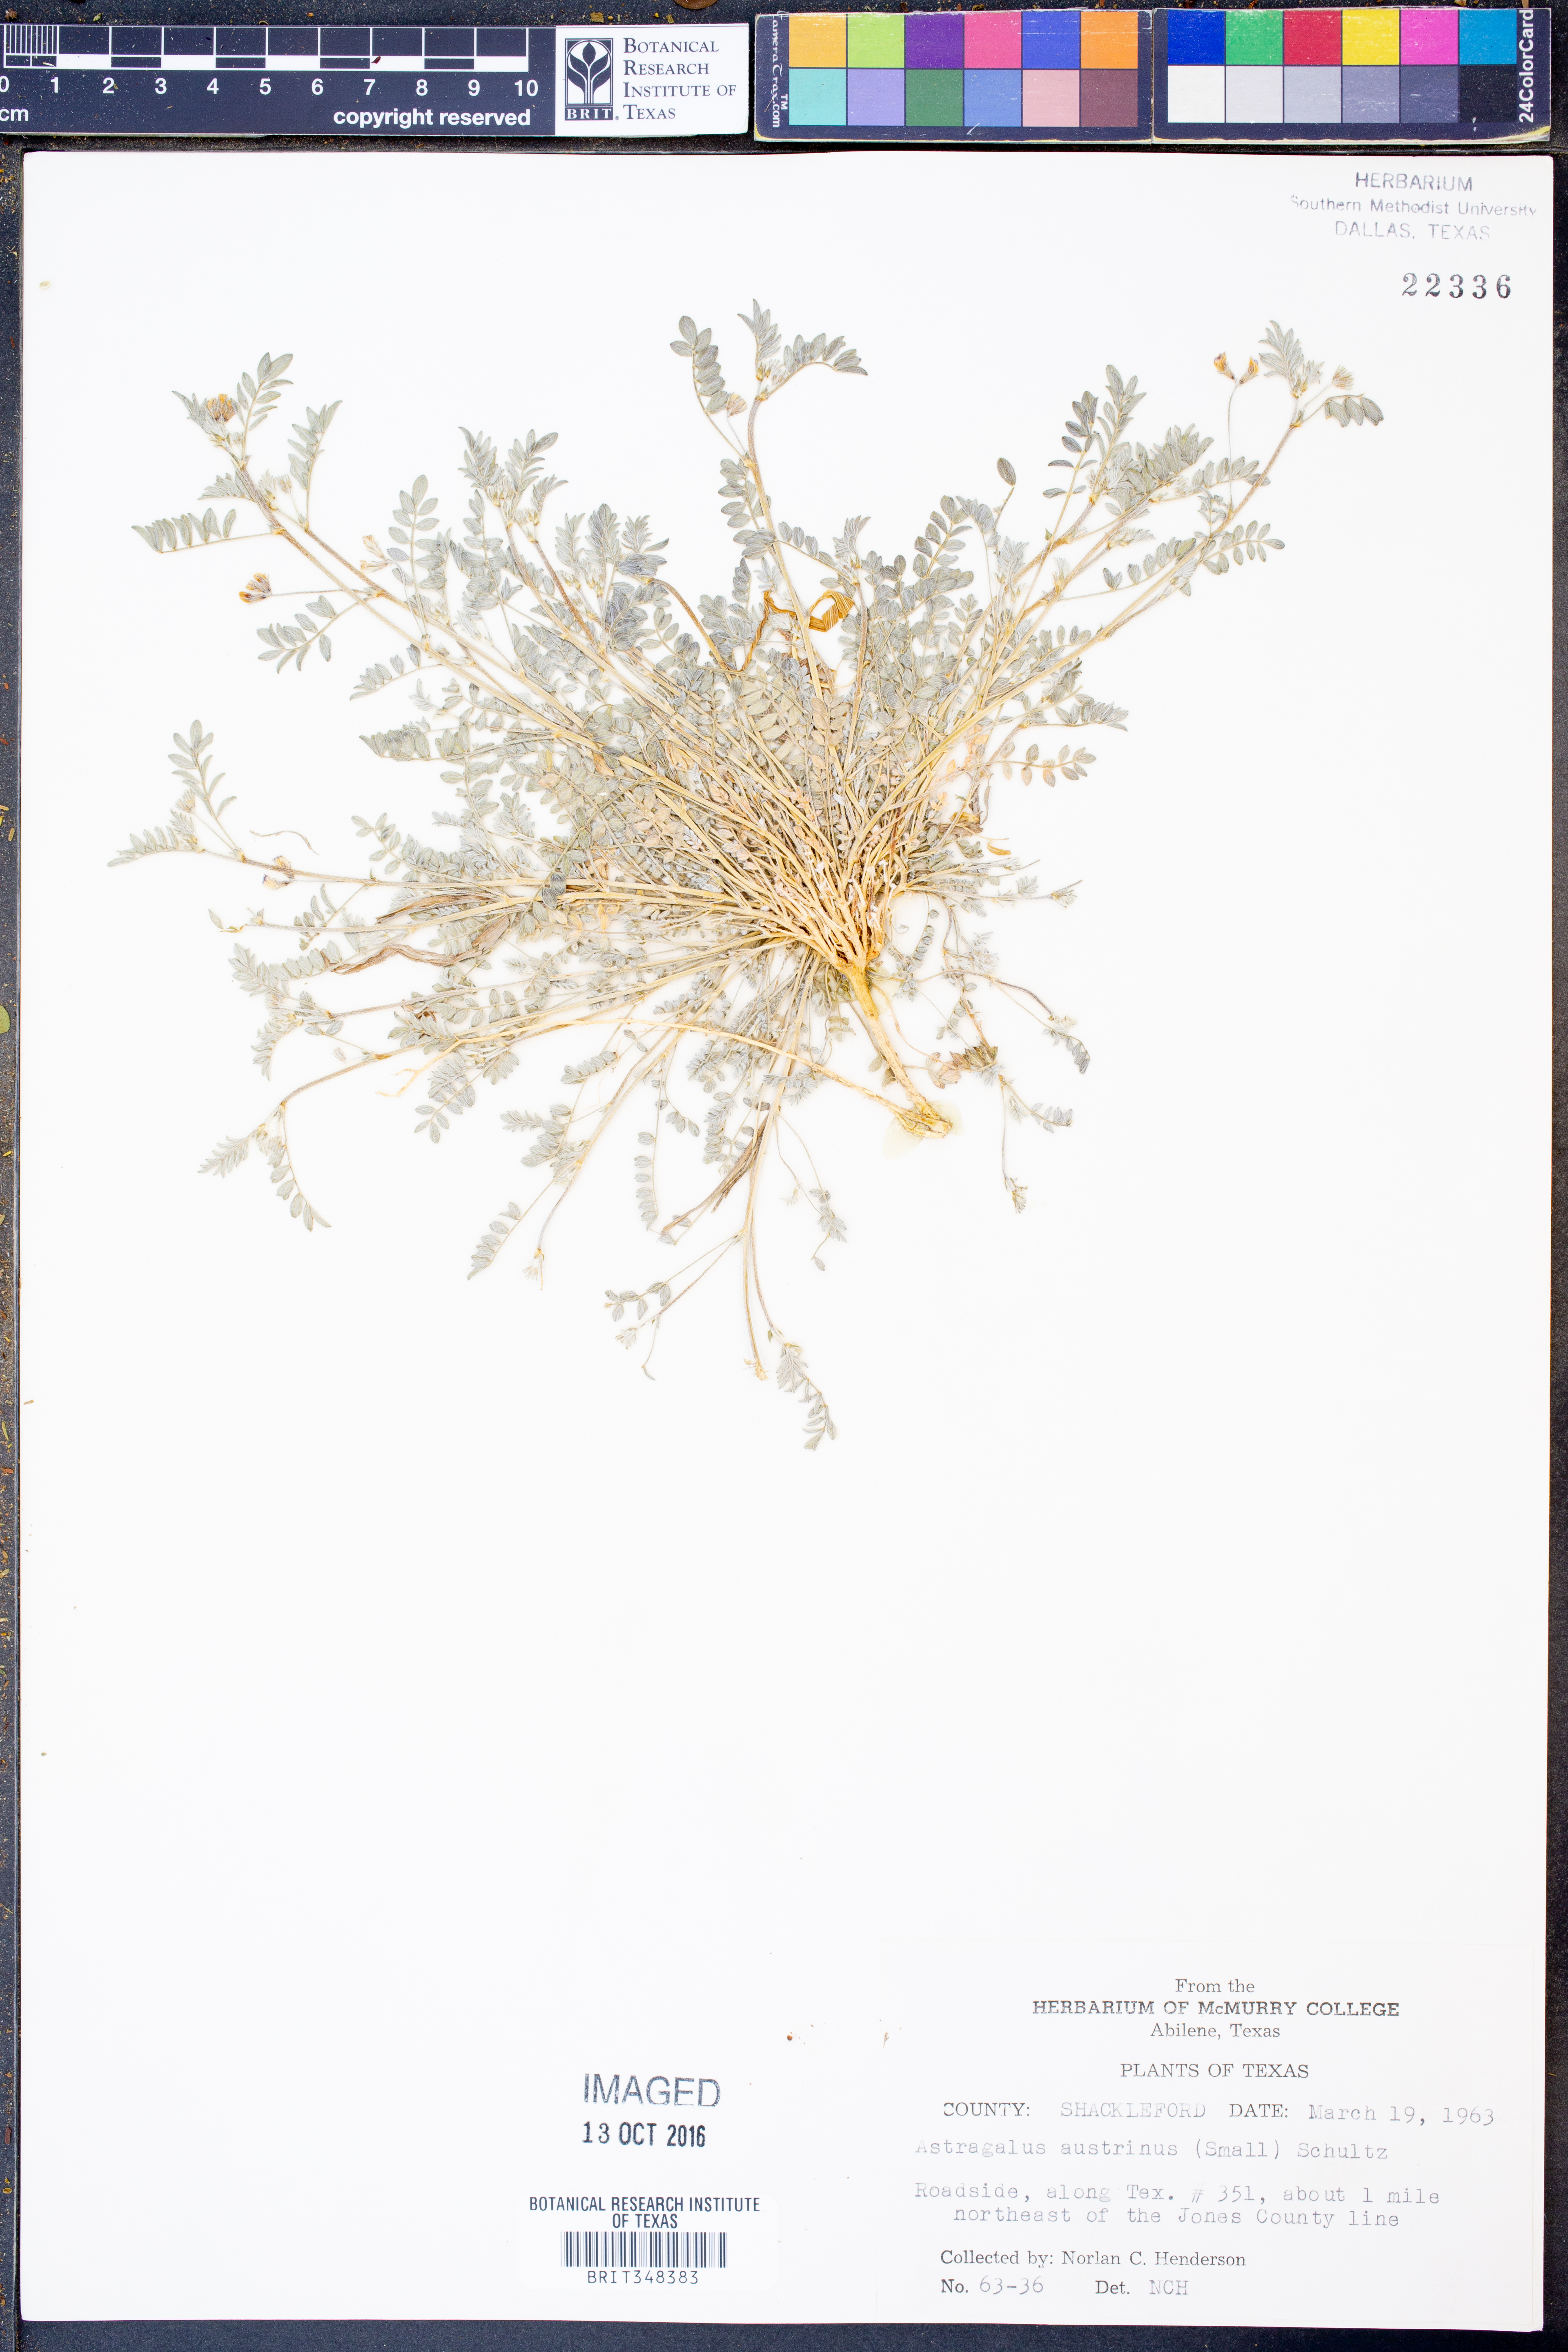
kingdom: Plantae
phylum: Tracheophyta
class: Magnoliopsida
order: Fabales
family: Fabaceae
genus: Astragalus
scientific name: Astragalus nuttallianus
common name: Smallflowered milkvetch
